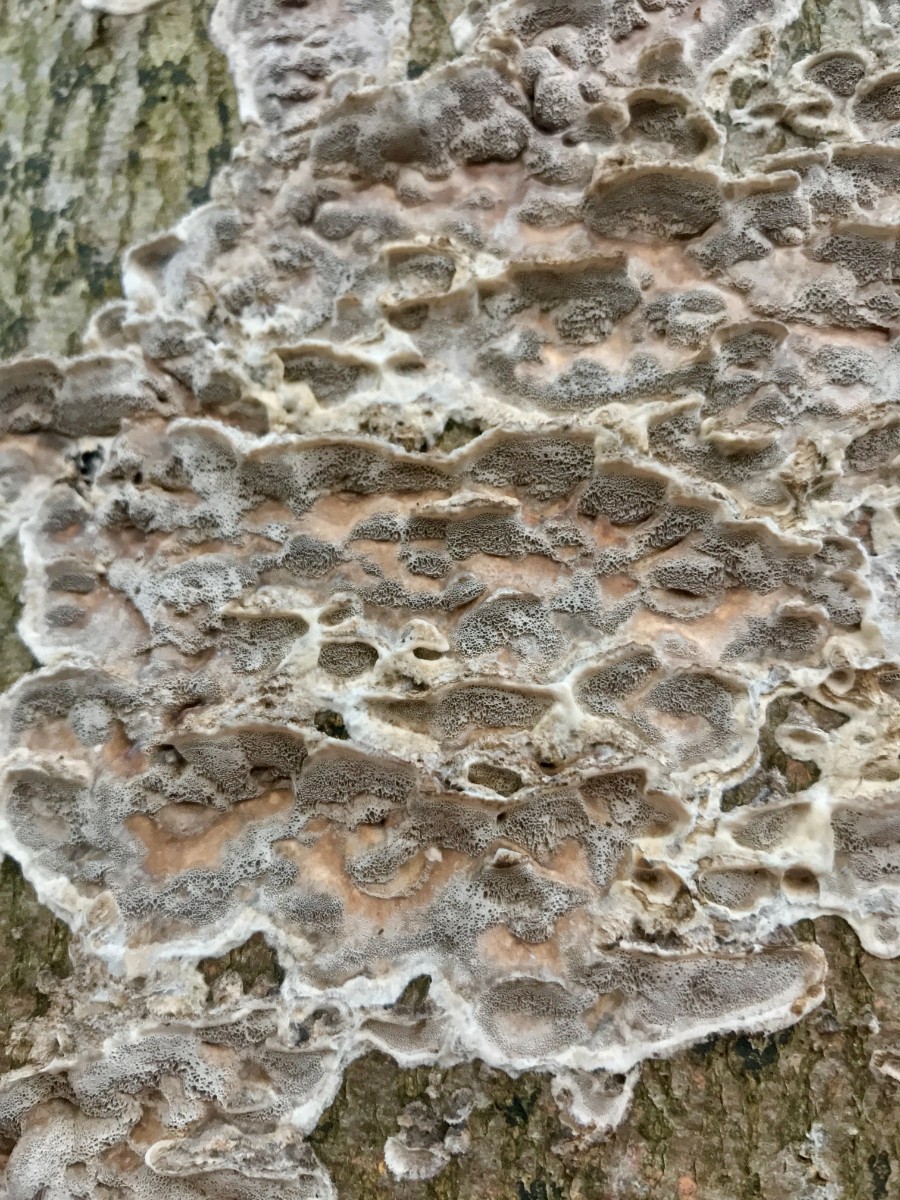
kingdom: Fungi
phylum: Basidiomycota
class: Agaricomycetes
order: Polyporales
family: Phanerochaetaceae
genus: Bjerkandera
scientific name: Bjerkandera adusta
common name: sveden sodporesvamp
